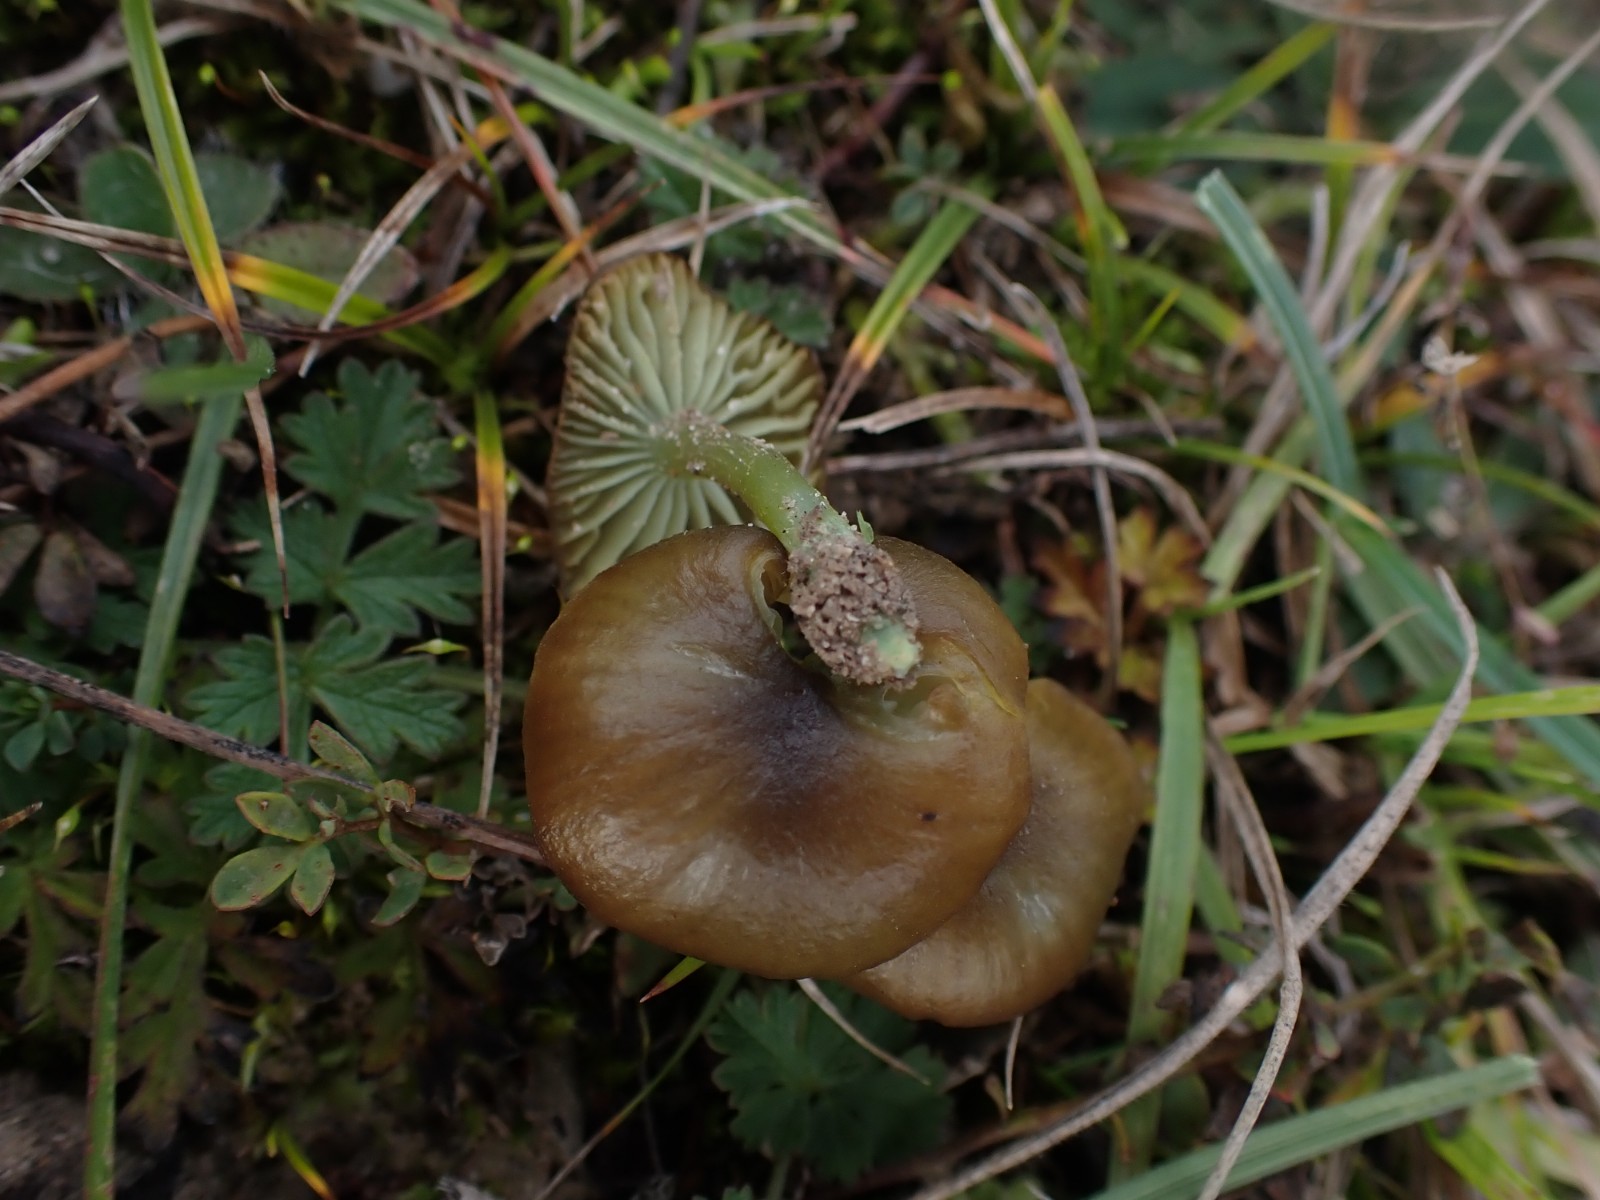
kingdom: Fungi
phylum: Basidiomycota
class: Agaricomycetes
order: Agaricales
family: Entolomataceae
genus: Entoloma
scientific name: Entoloma incanum
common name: grøngul rødblad
